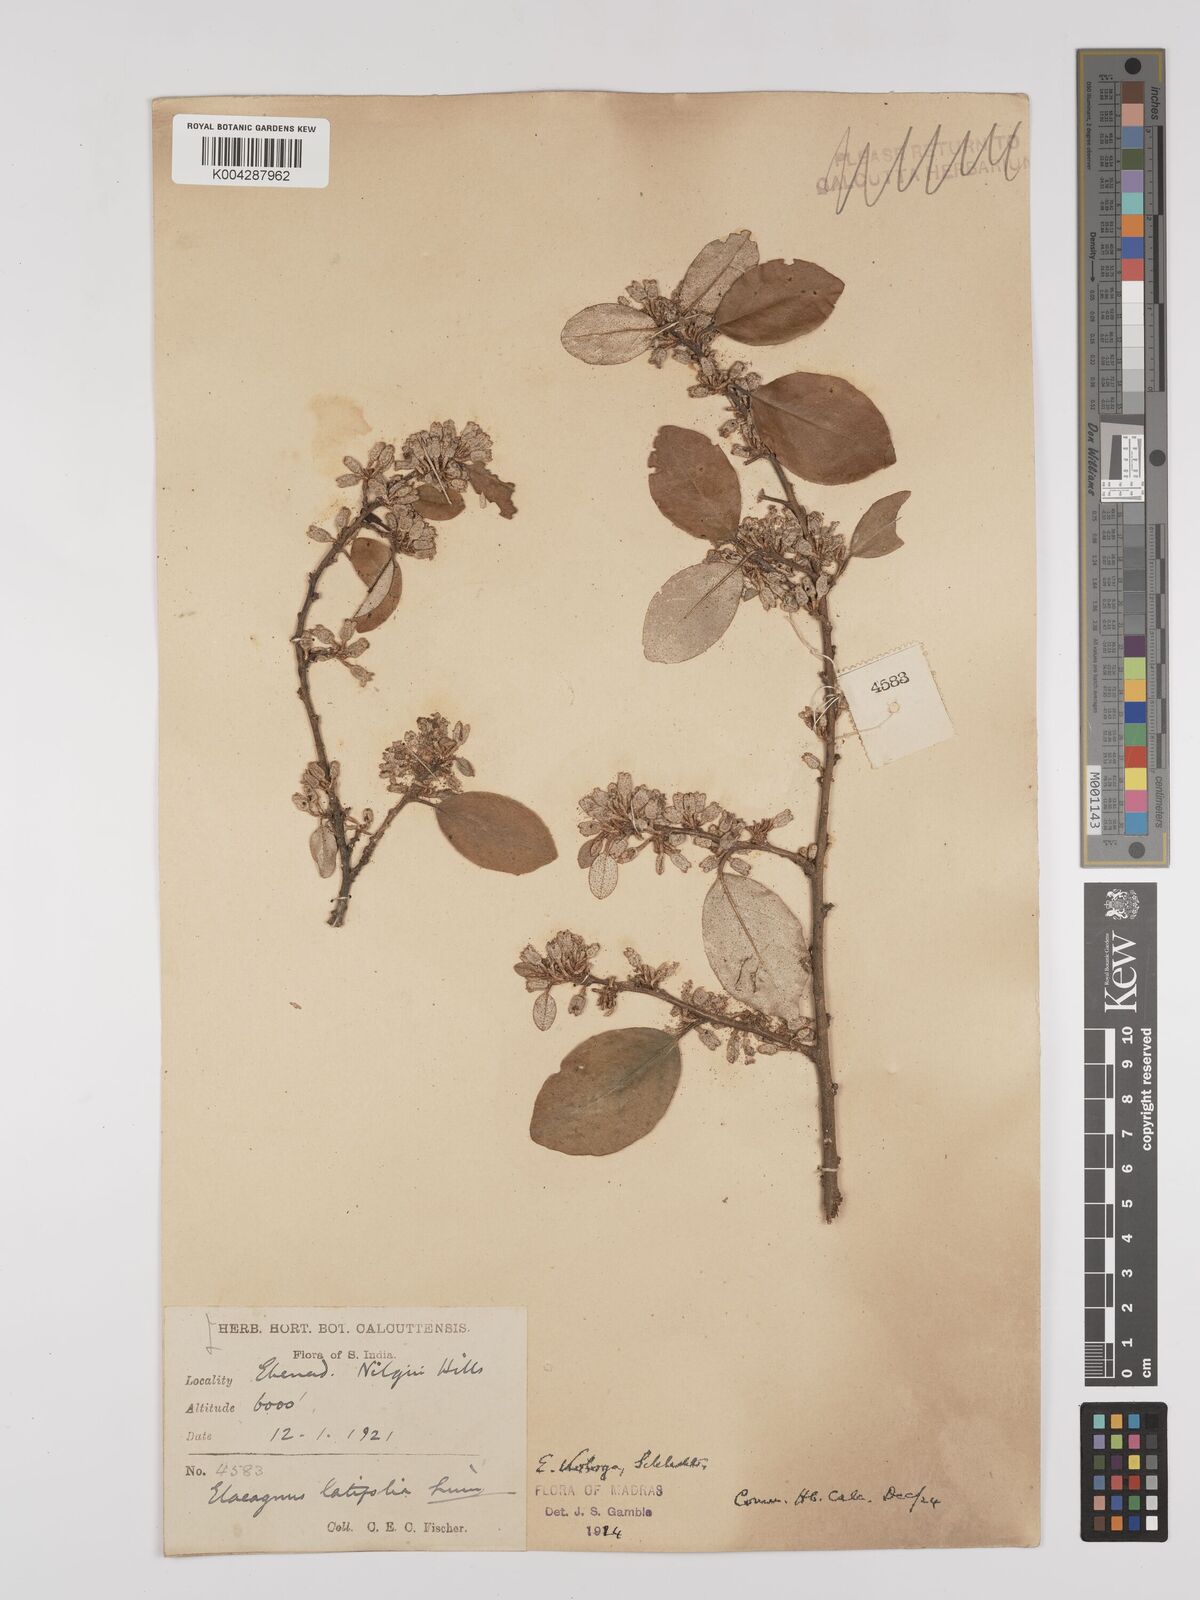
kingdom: Plantae
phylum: Tracheophyta
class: Magnoliopsida
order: Rosales
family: Elaeagnaceae
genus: Elaeagnus
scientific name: Elaeagnus latifolia
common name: Oleaster
